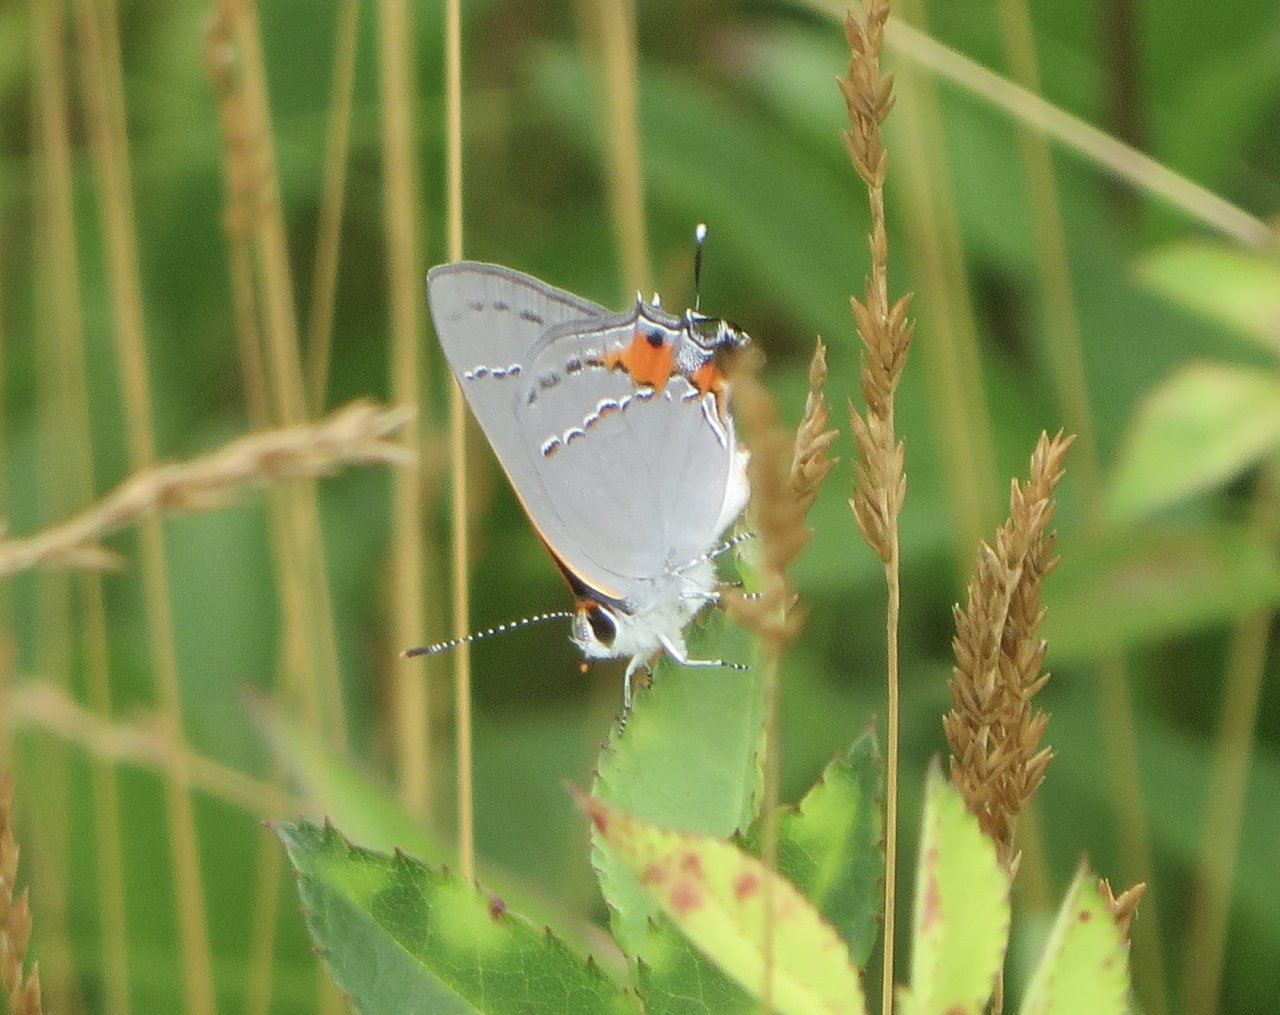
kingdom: Animalia
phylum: Arthropoda
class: Insecta
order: Lepidoptera
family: Lycaenidae
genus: Strymon
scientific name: Strymon melinus
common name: Gray Hairstreak
